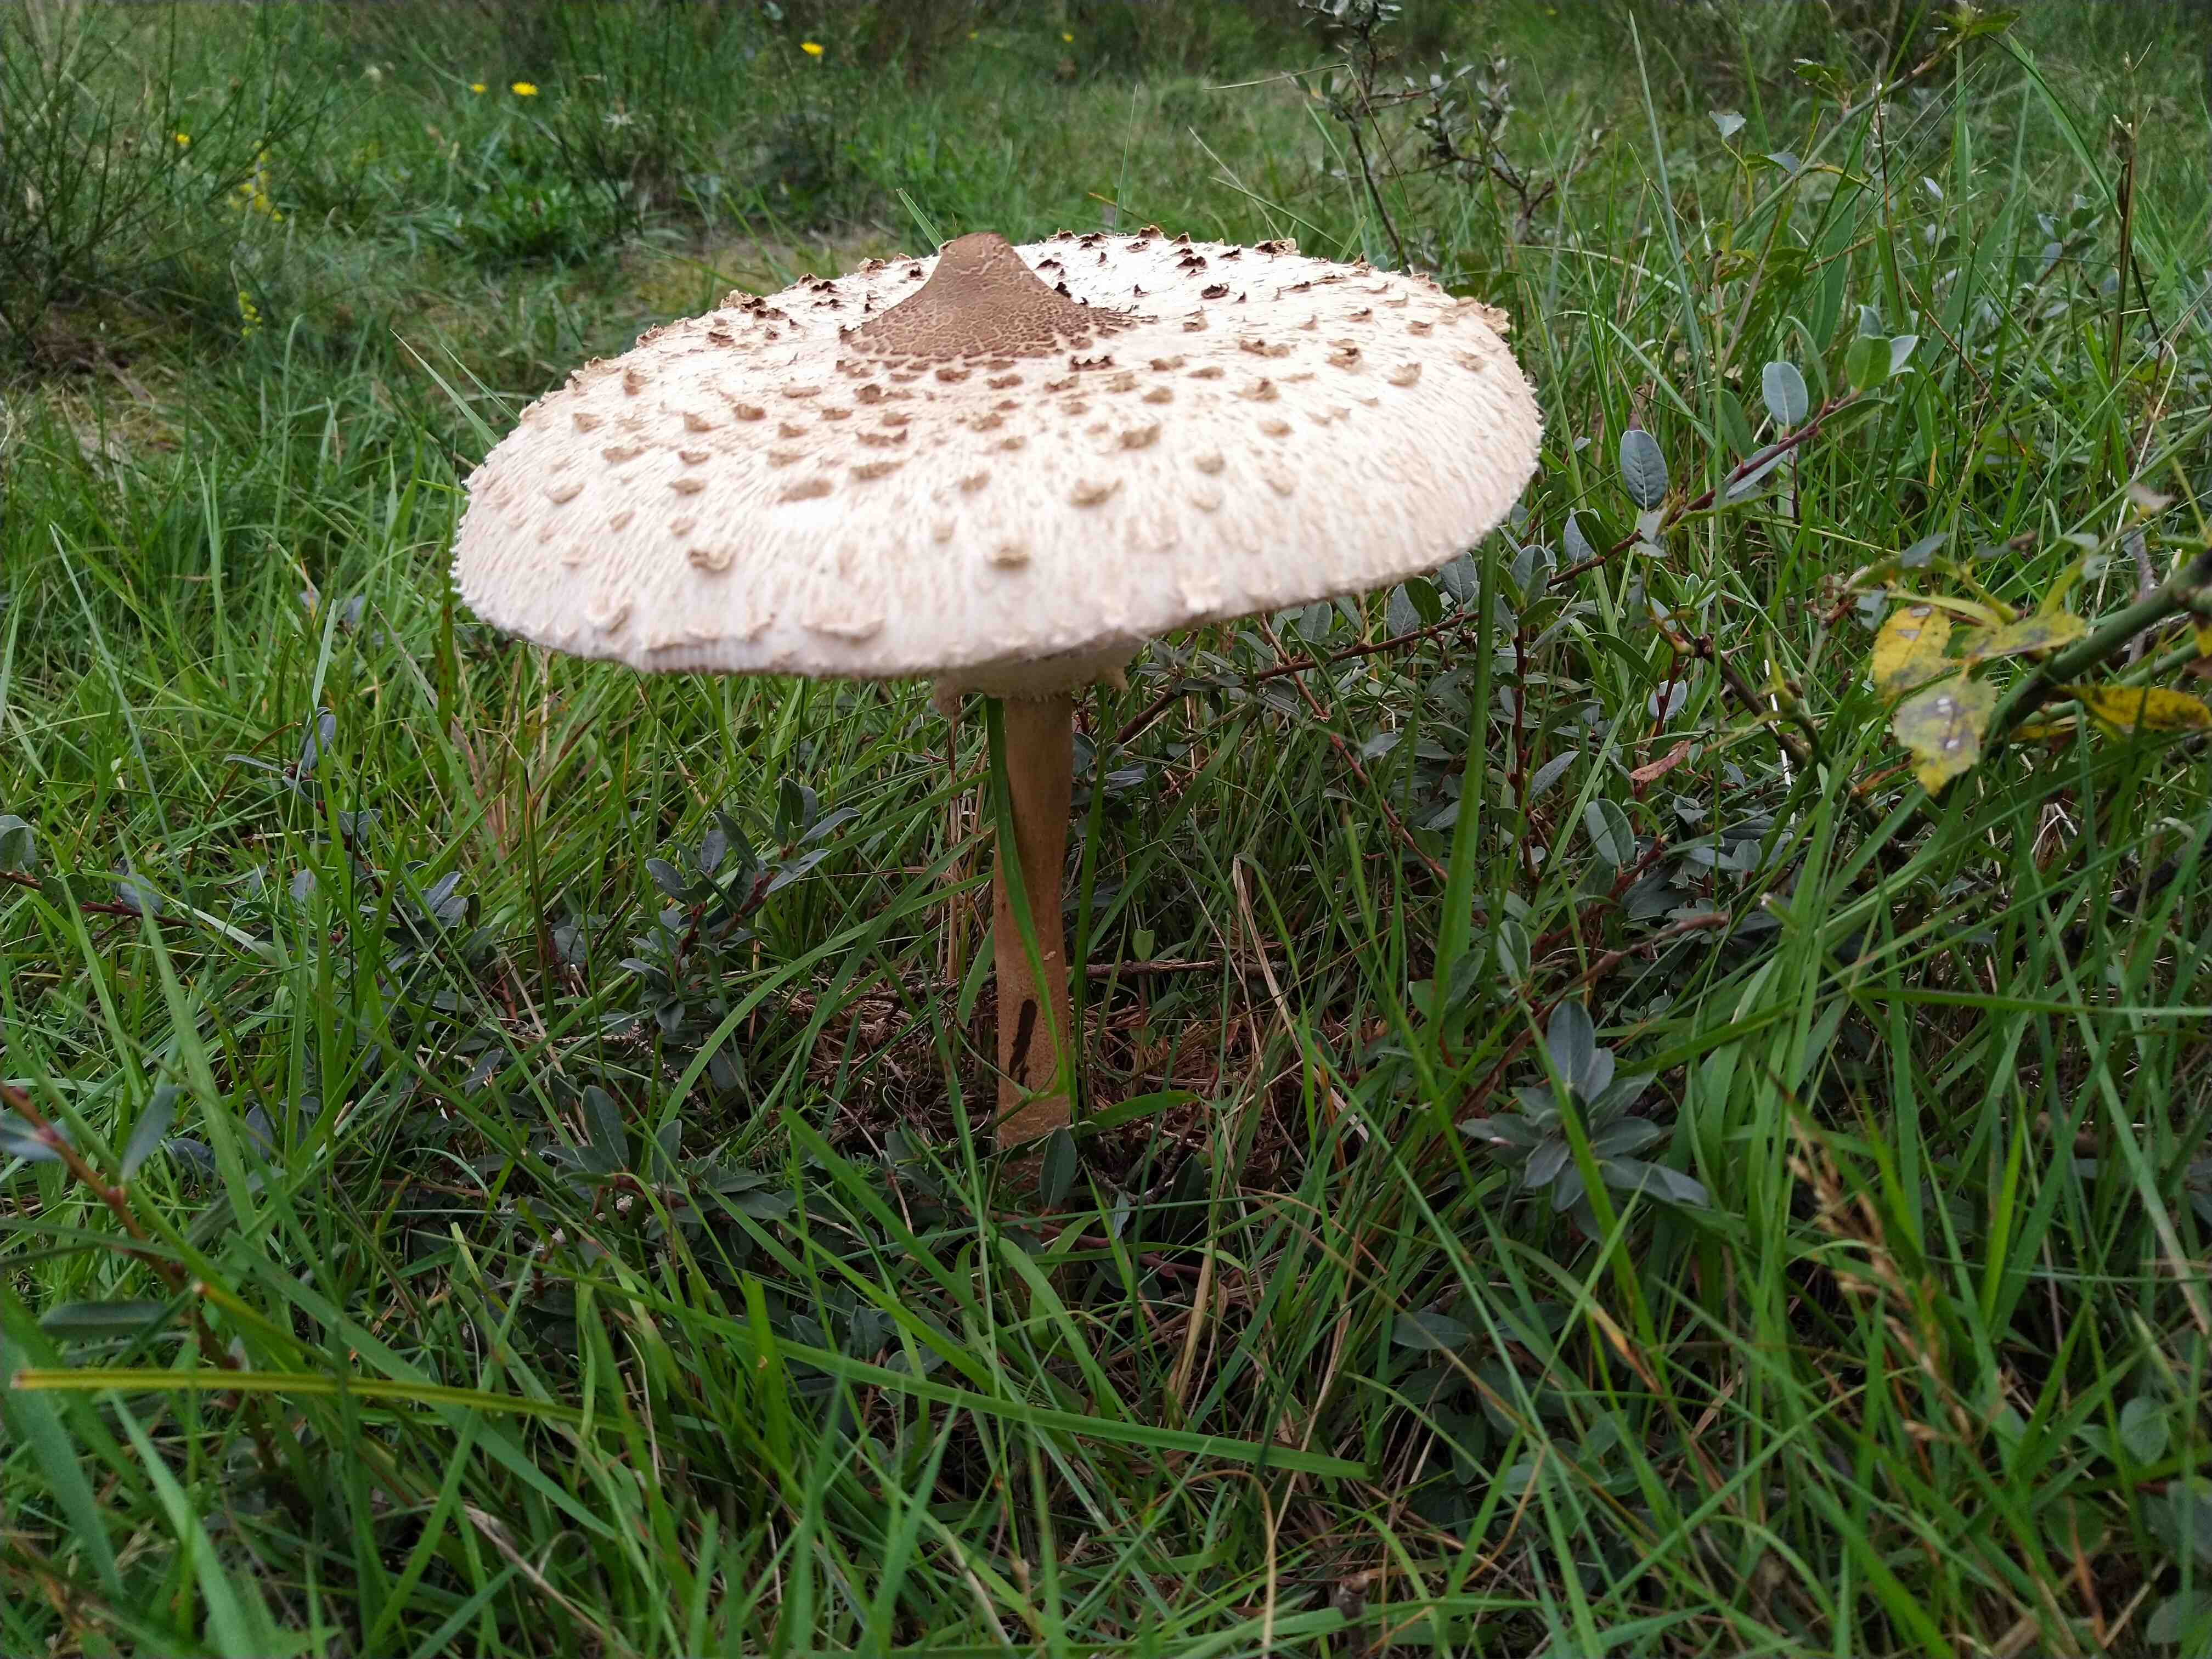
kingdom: Fungi
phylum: Basidiomycota
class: Agaricomycetes
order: Agaricales
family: Agaricaceae
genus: Macrolepiota
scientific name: Macrolepiota procera
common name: stor kæmpeparasolhat
